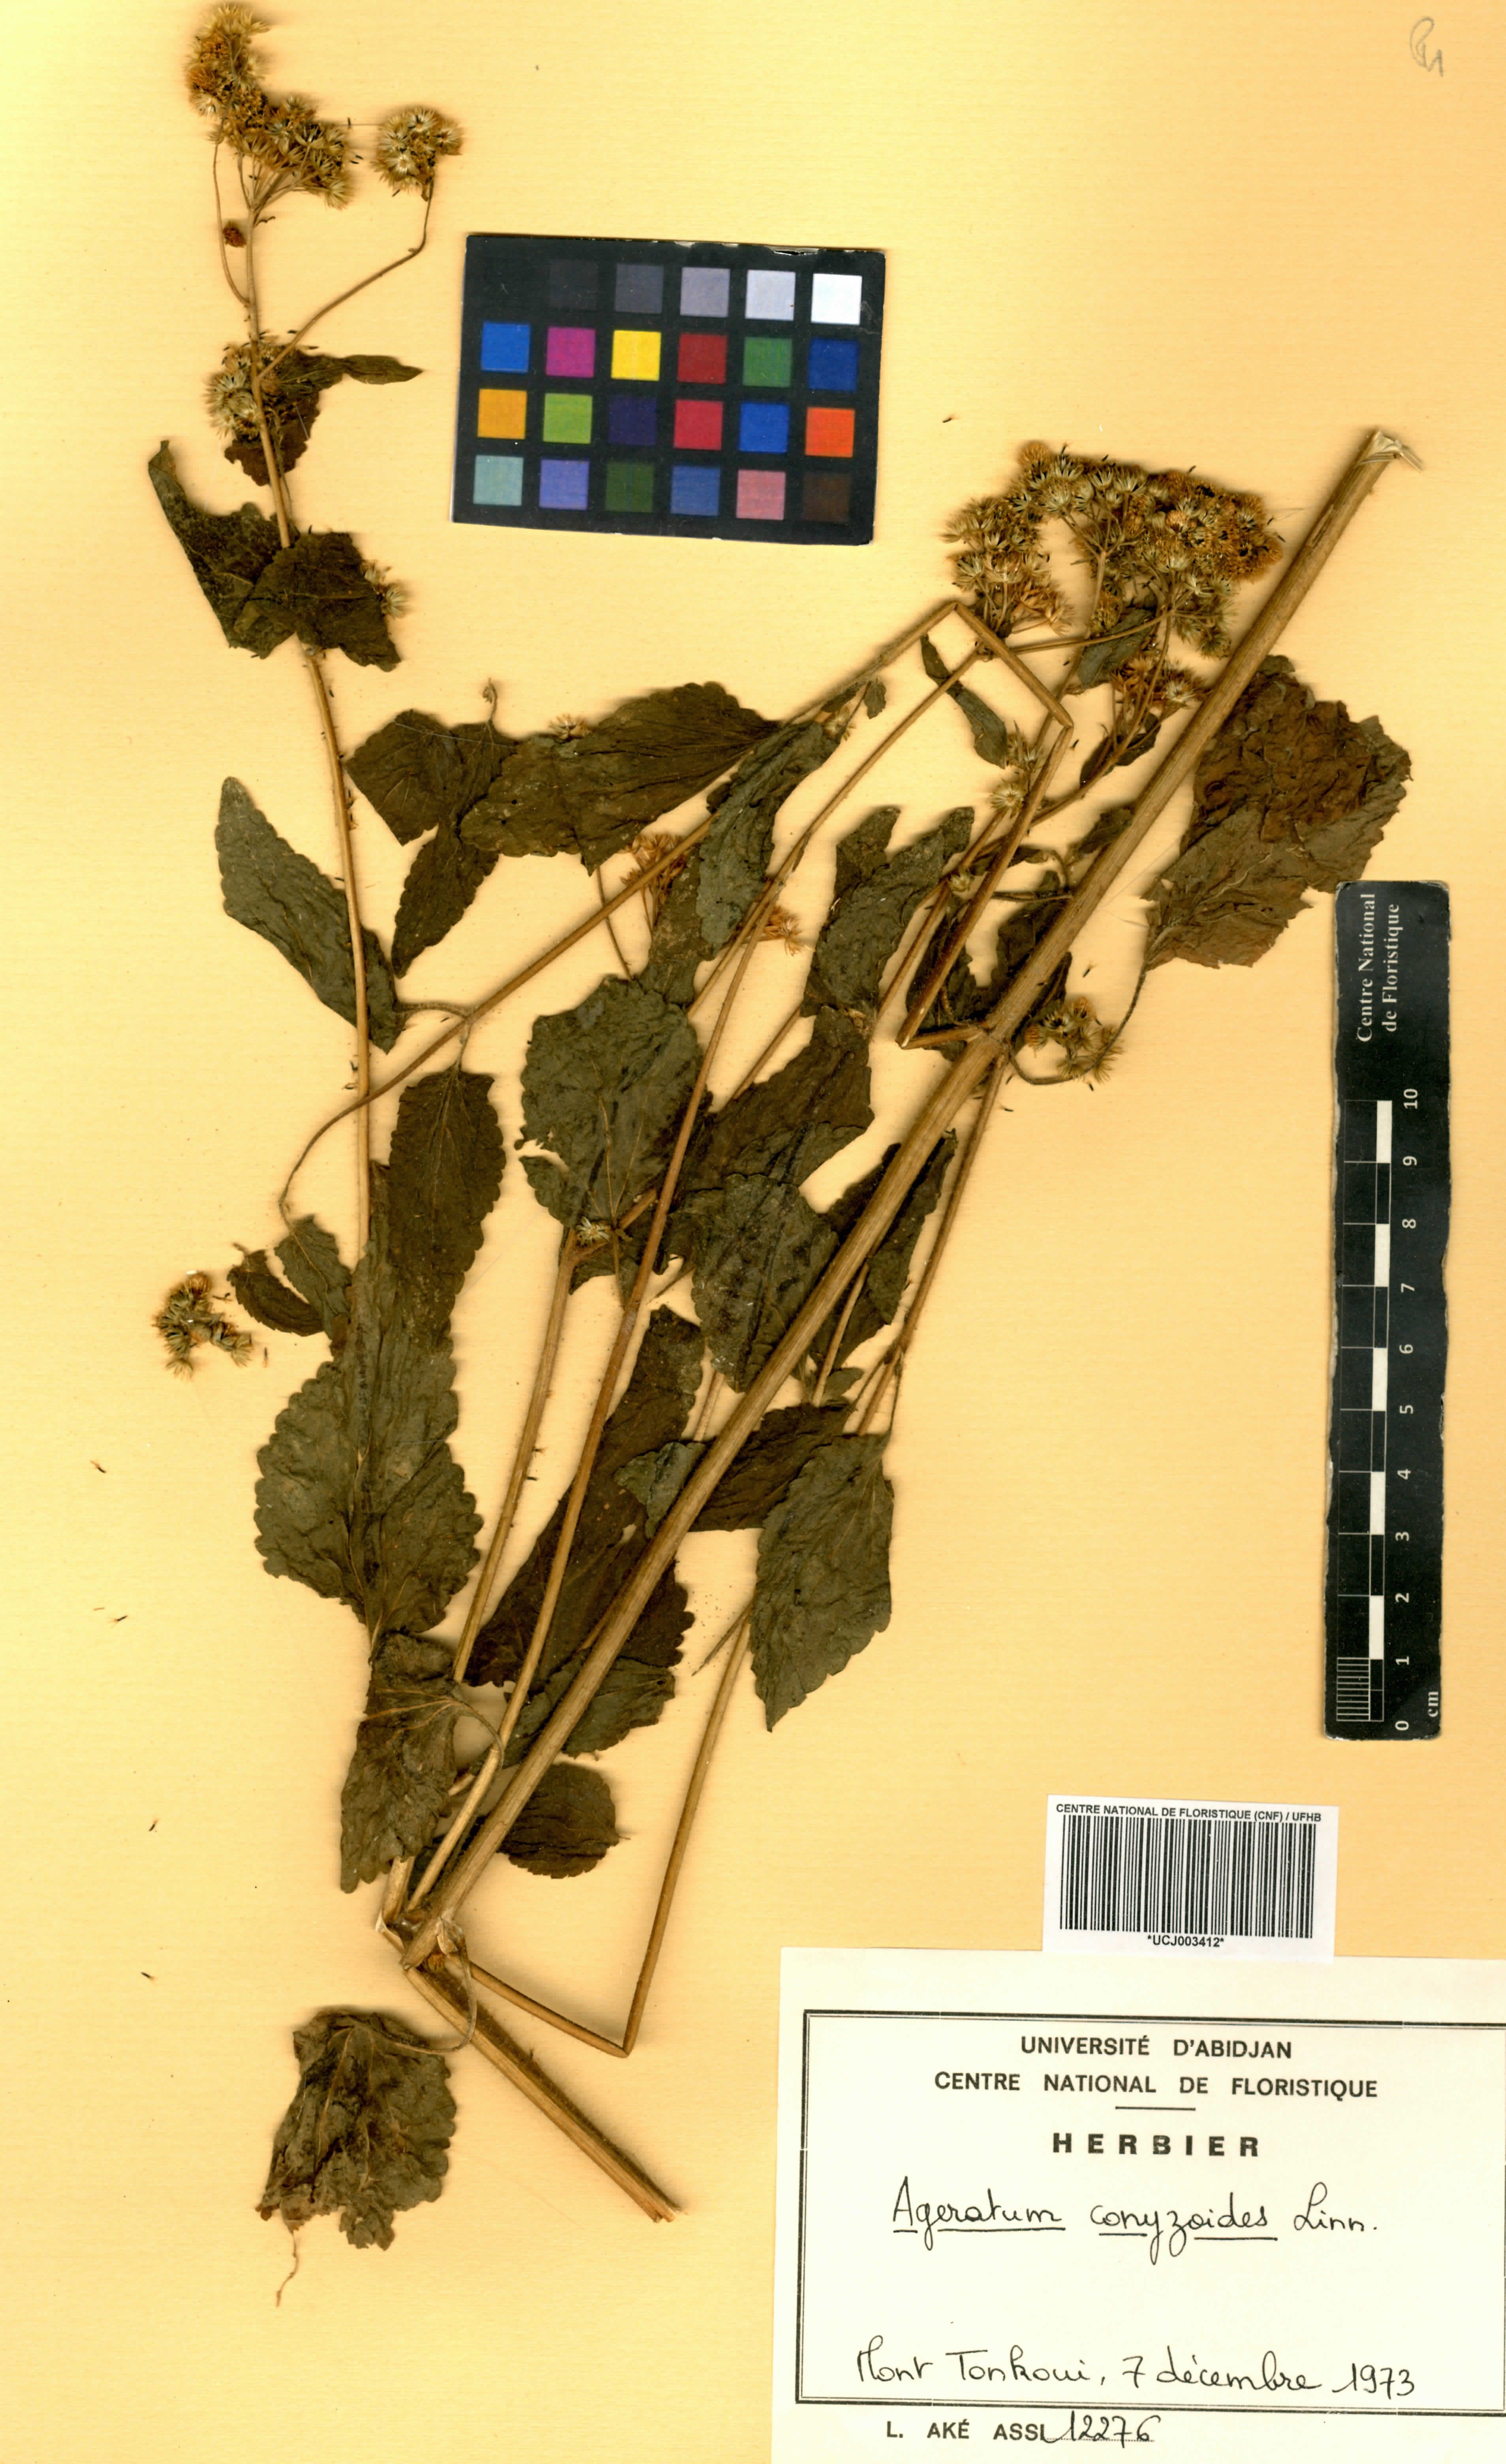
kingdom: Plantae
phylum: Tracheophyta
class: Magnoliopsida
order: Asterales
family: Asteraceae
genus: Ageratum
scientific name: Ageratum conyzoides
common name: Tropical whiteweed
